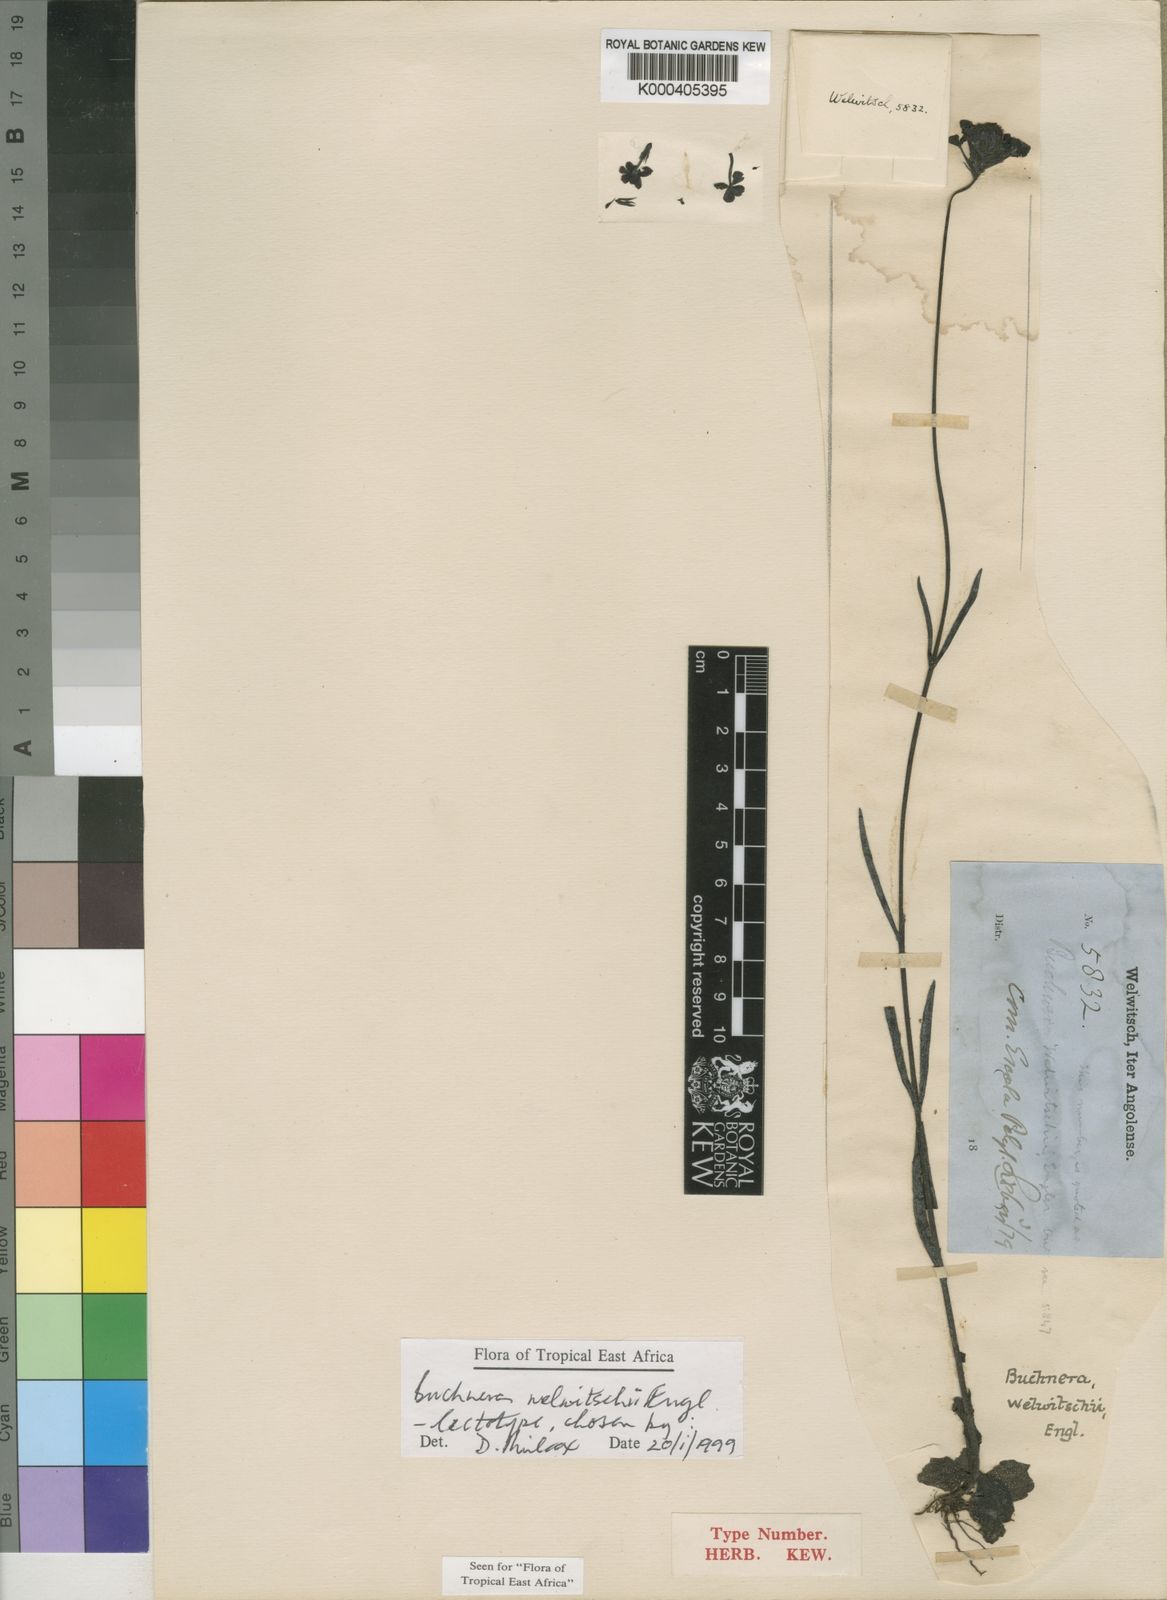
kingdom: Plantae
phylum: Tracheophyta
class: Magnoliopsida
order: Lamiales
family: Orobanchaceae
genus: Buchnera
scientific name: Buchnera welwitschii
